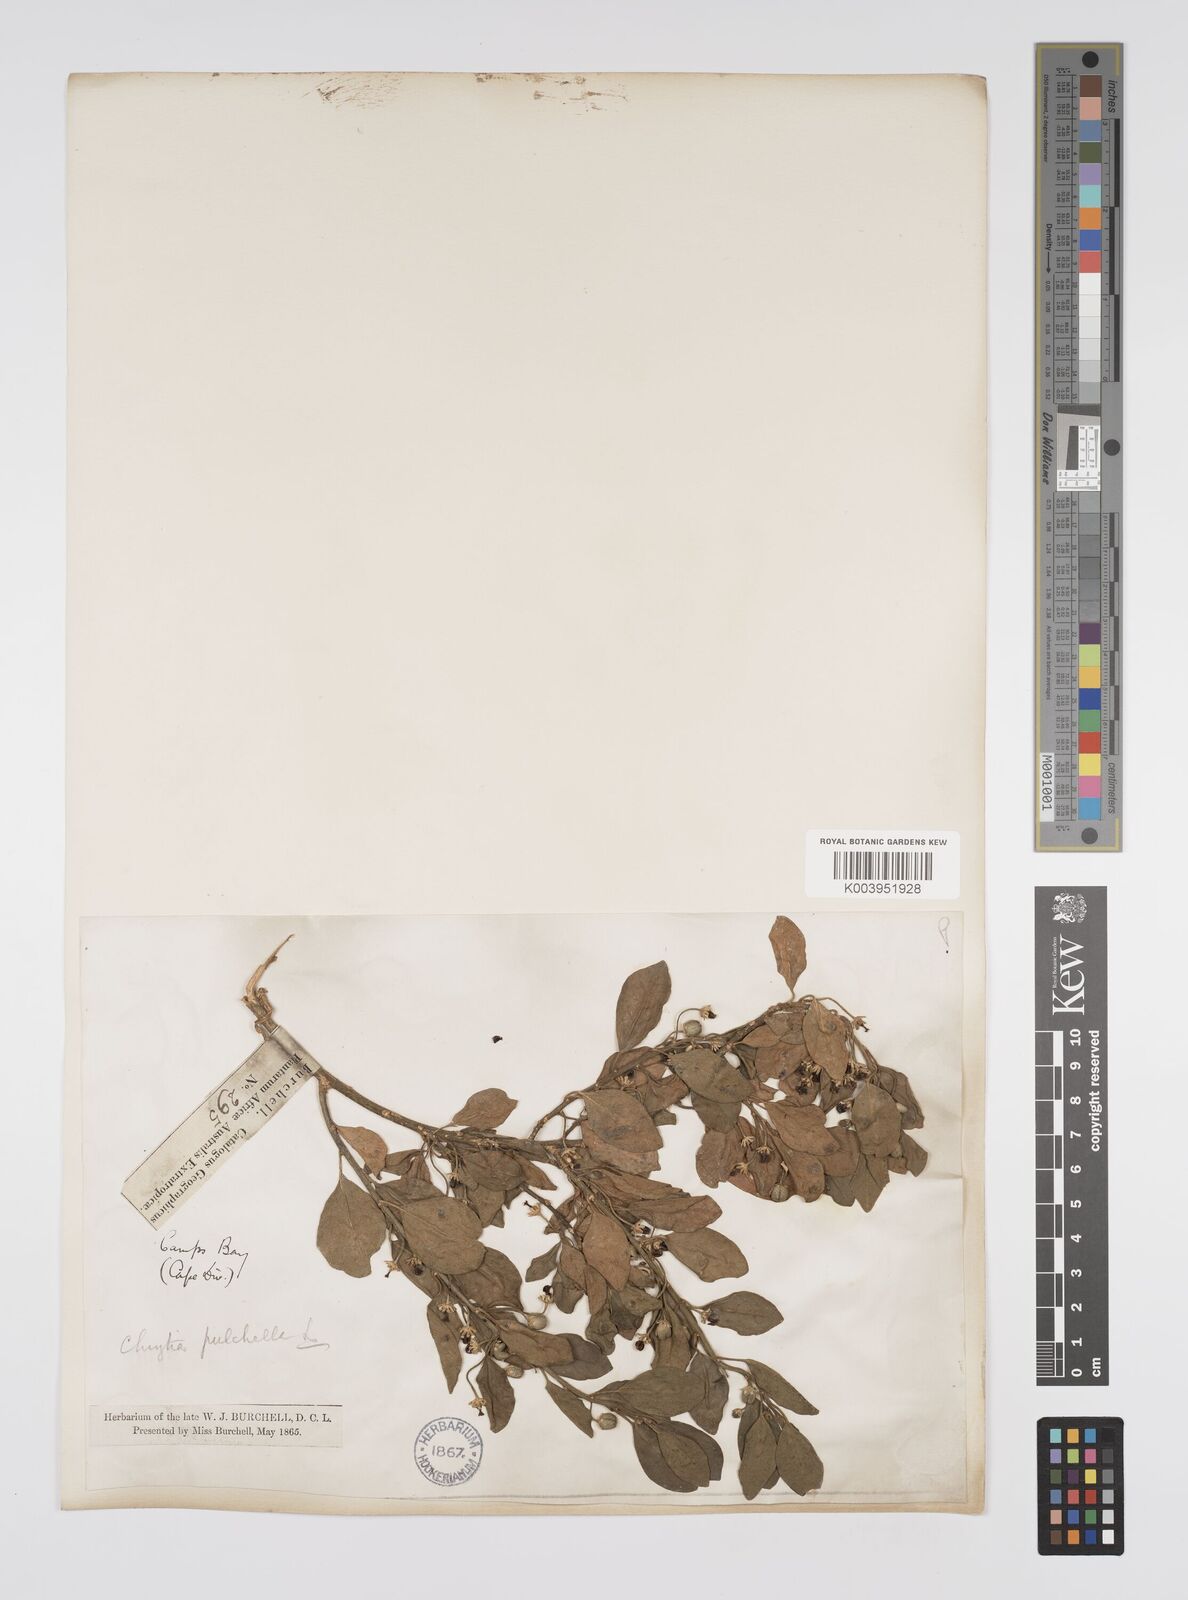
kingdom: Plantae
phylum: Tracheophyta
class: Magnoliopsida
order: Malpighiales
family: Peraceae
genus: Clutia
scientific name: Clutia pulchella
